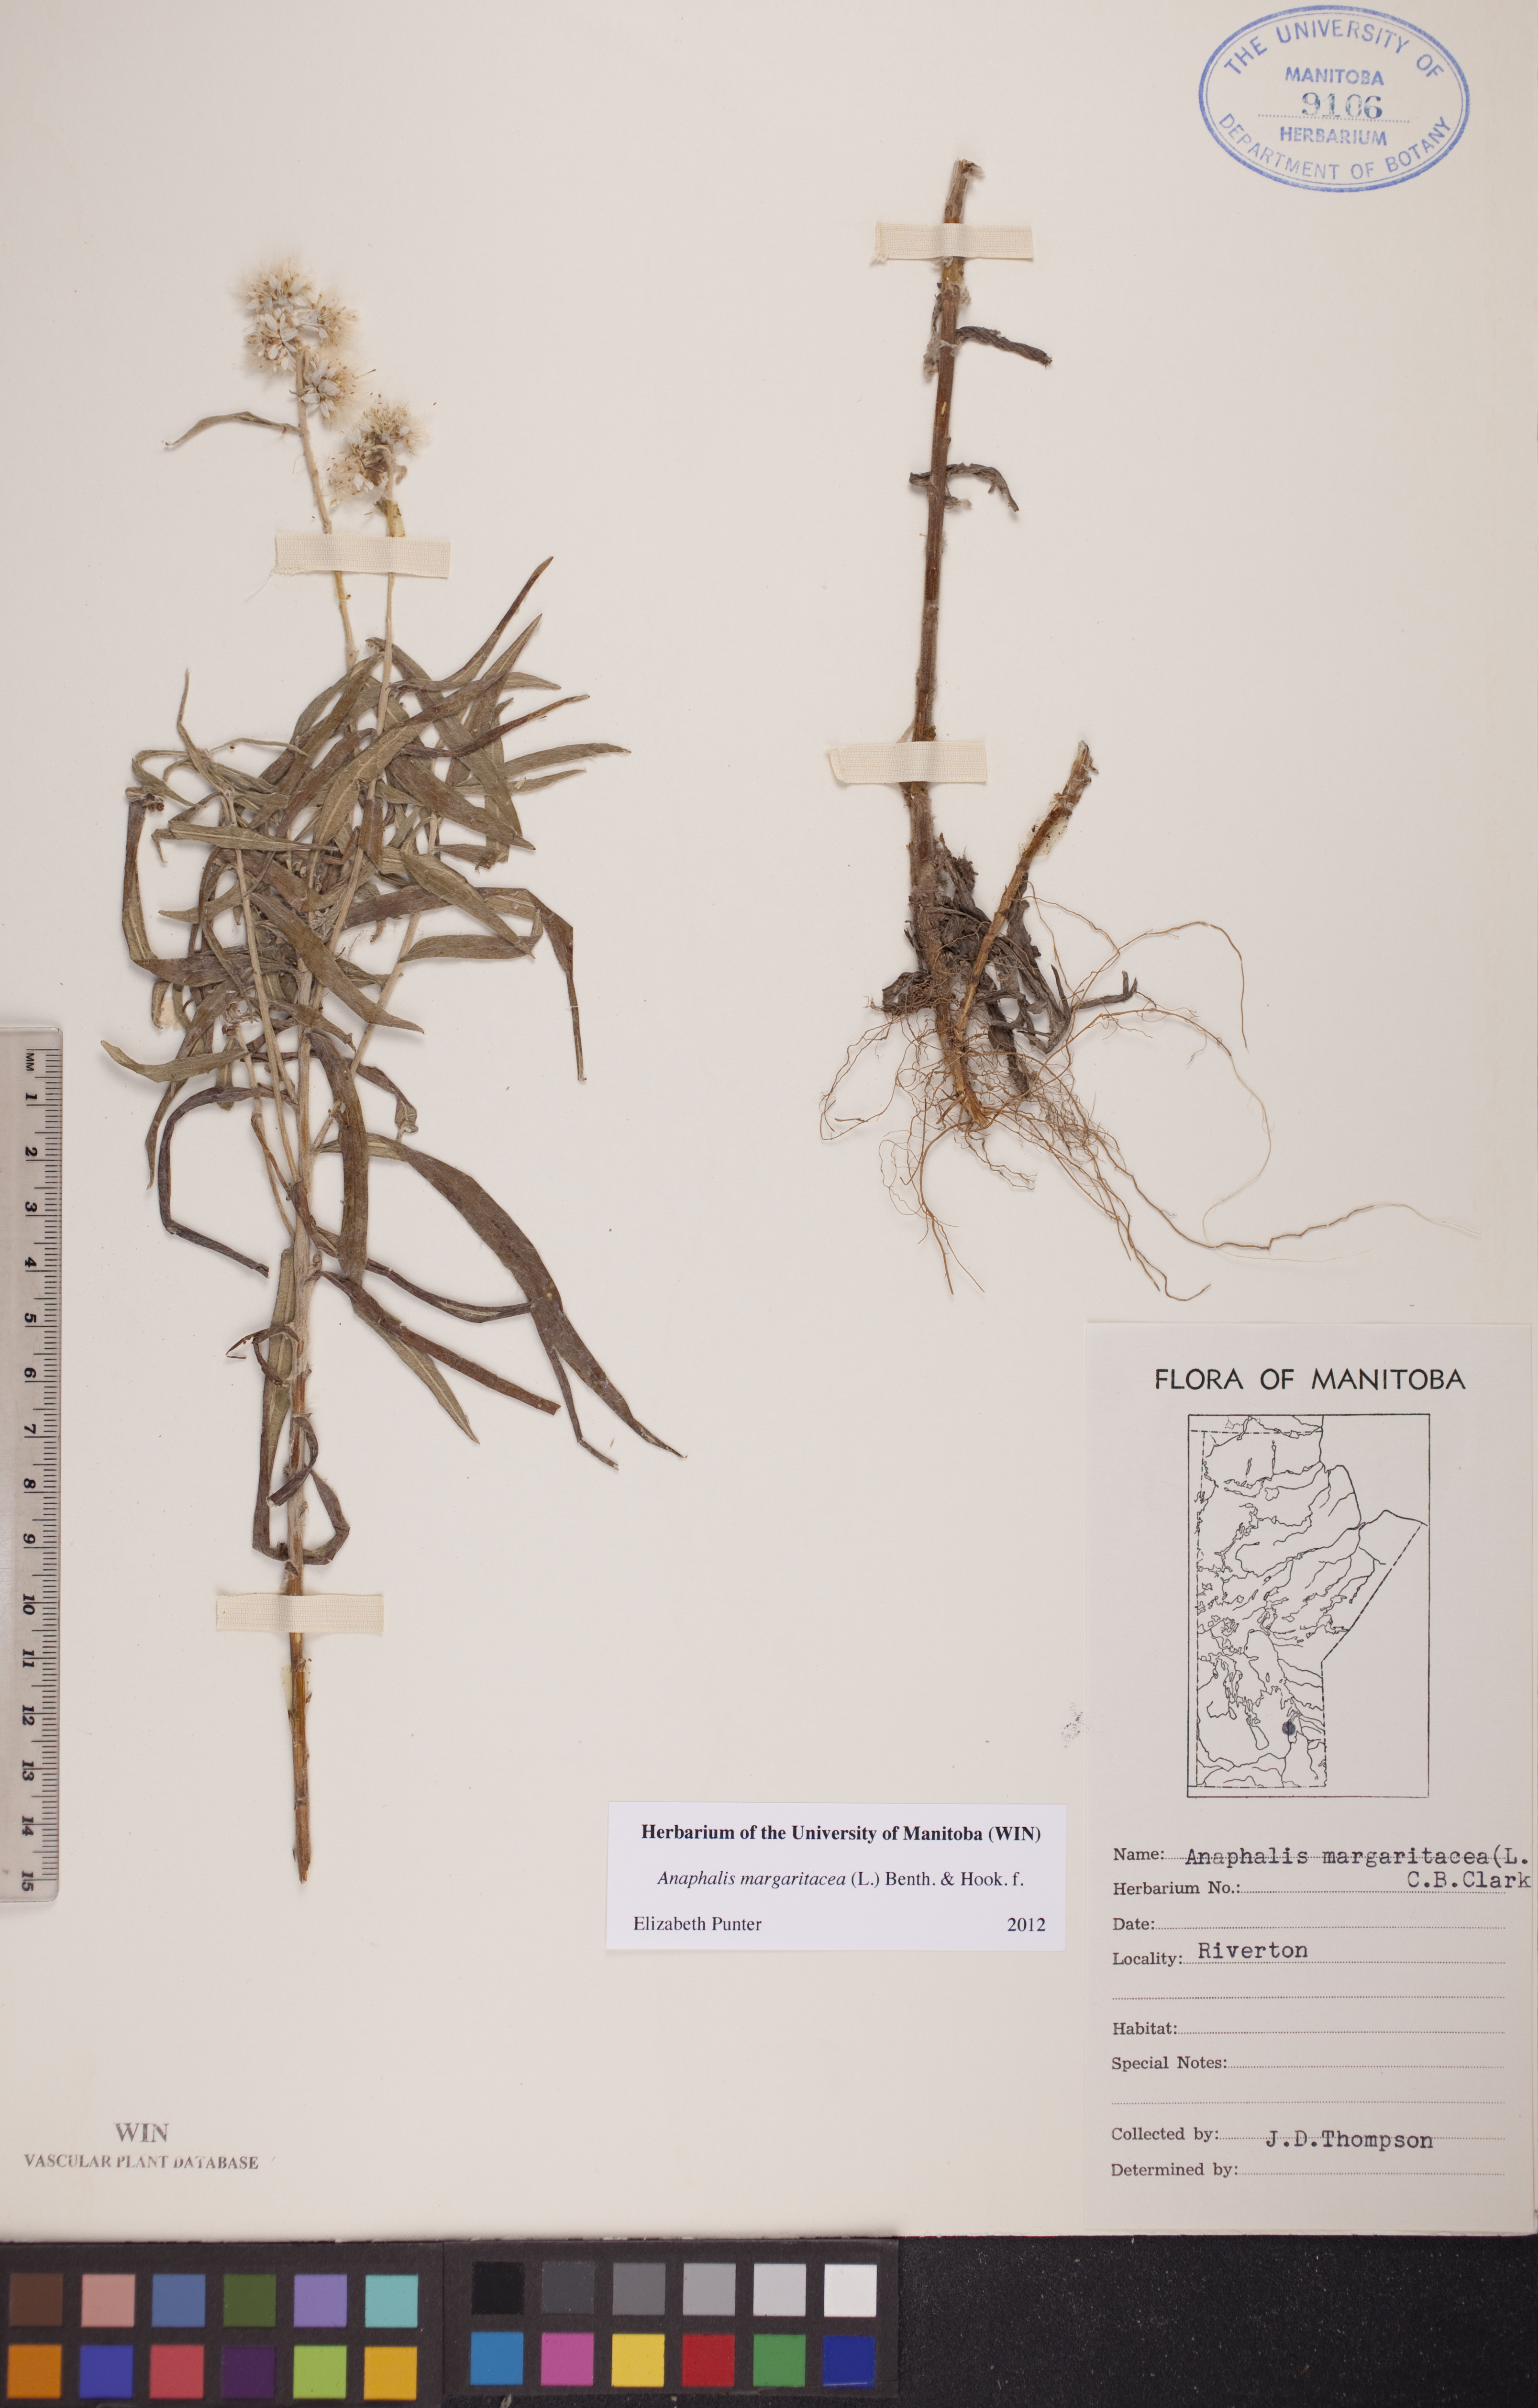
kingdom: Plantae
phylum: Tracheophyta
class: Magnoliopsida
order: Asterales
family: Asteraceae
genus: Anaphalis
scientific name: Anaphalis margaritacea
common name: Pearly everlasting
